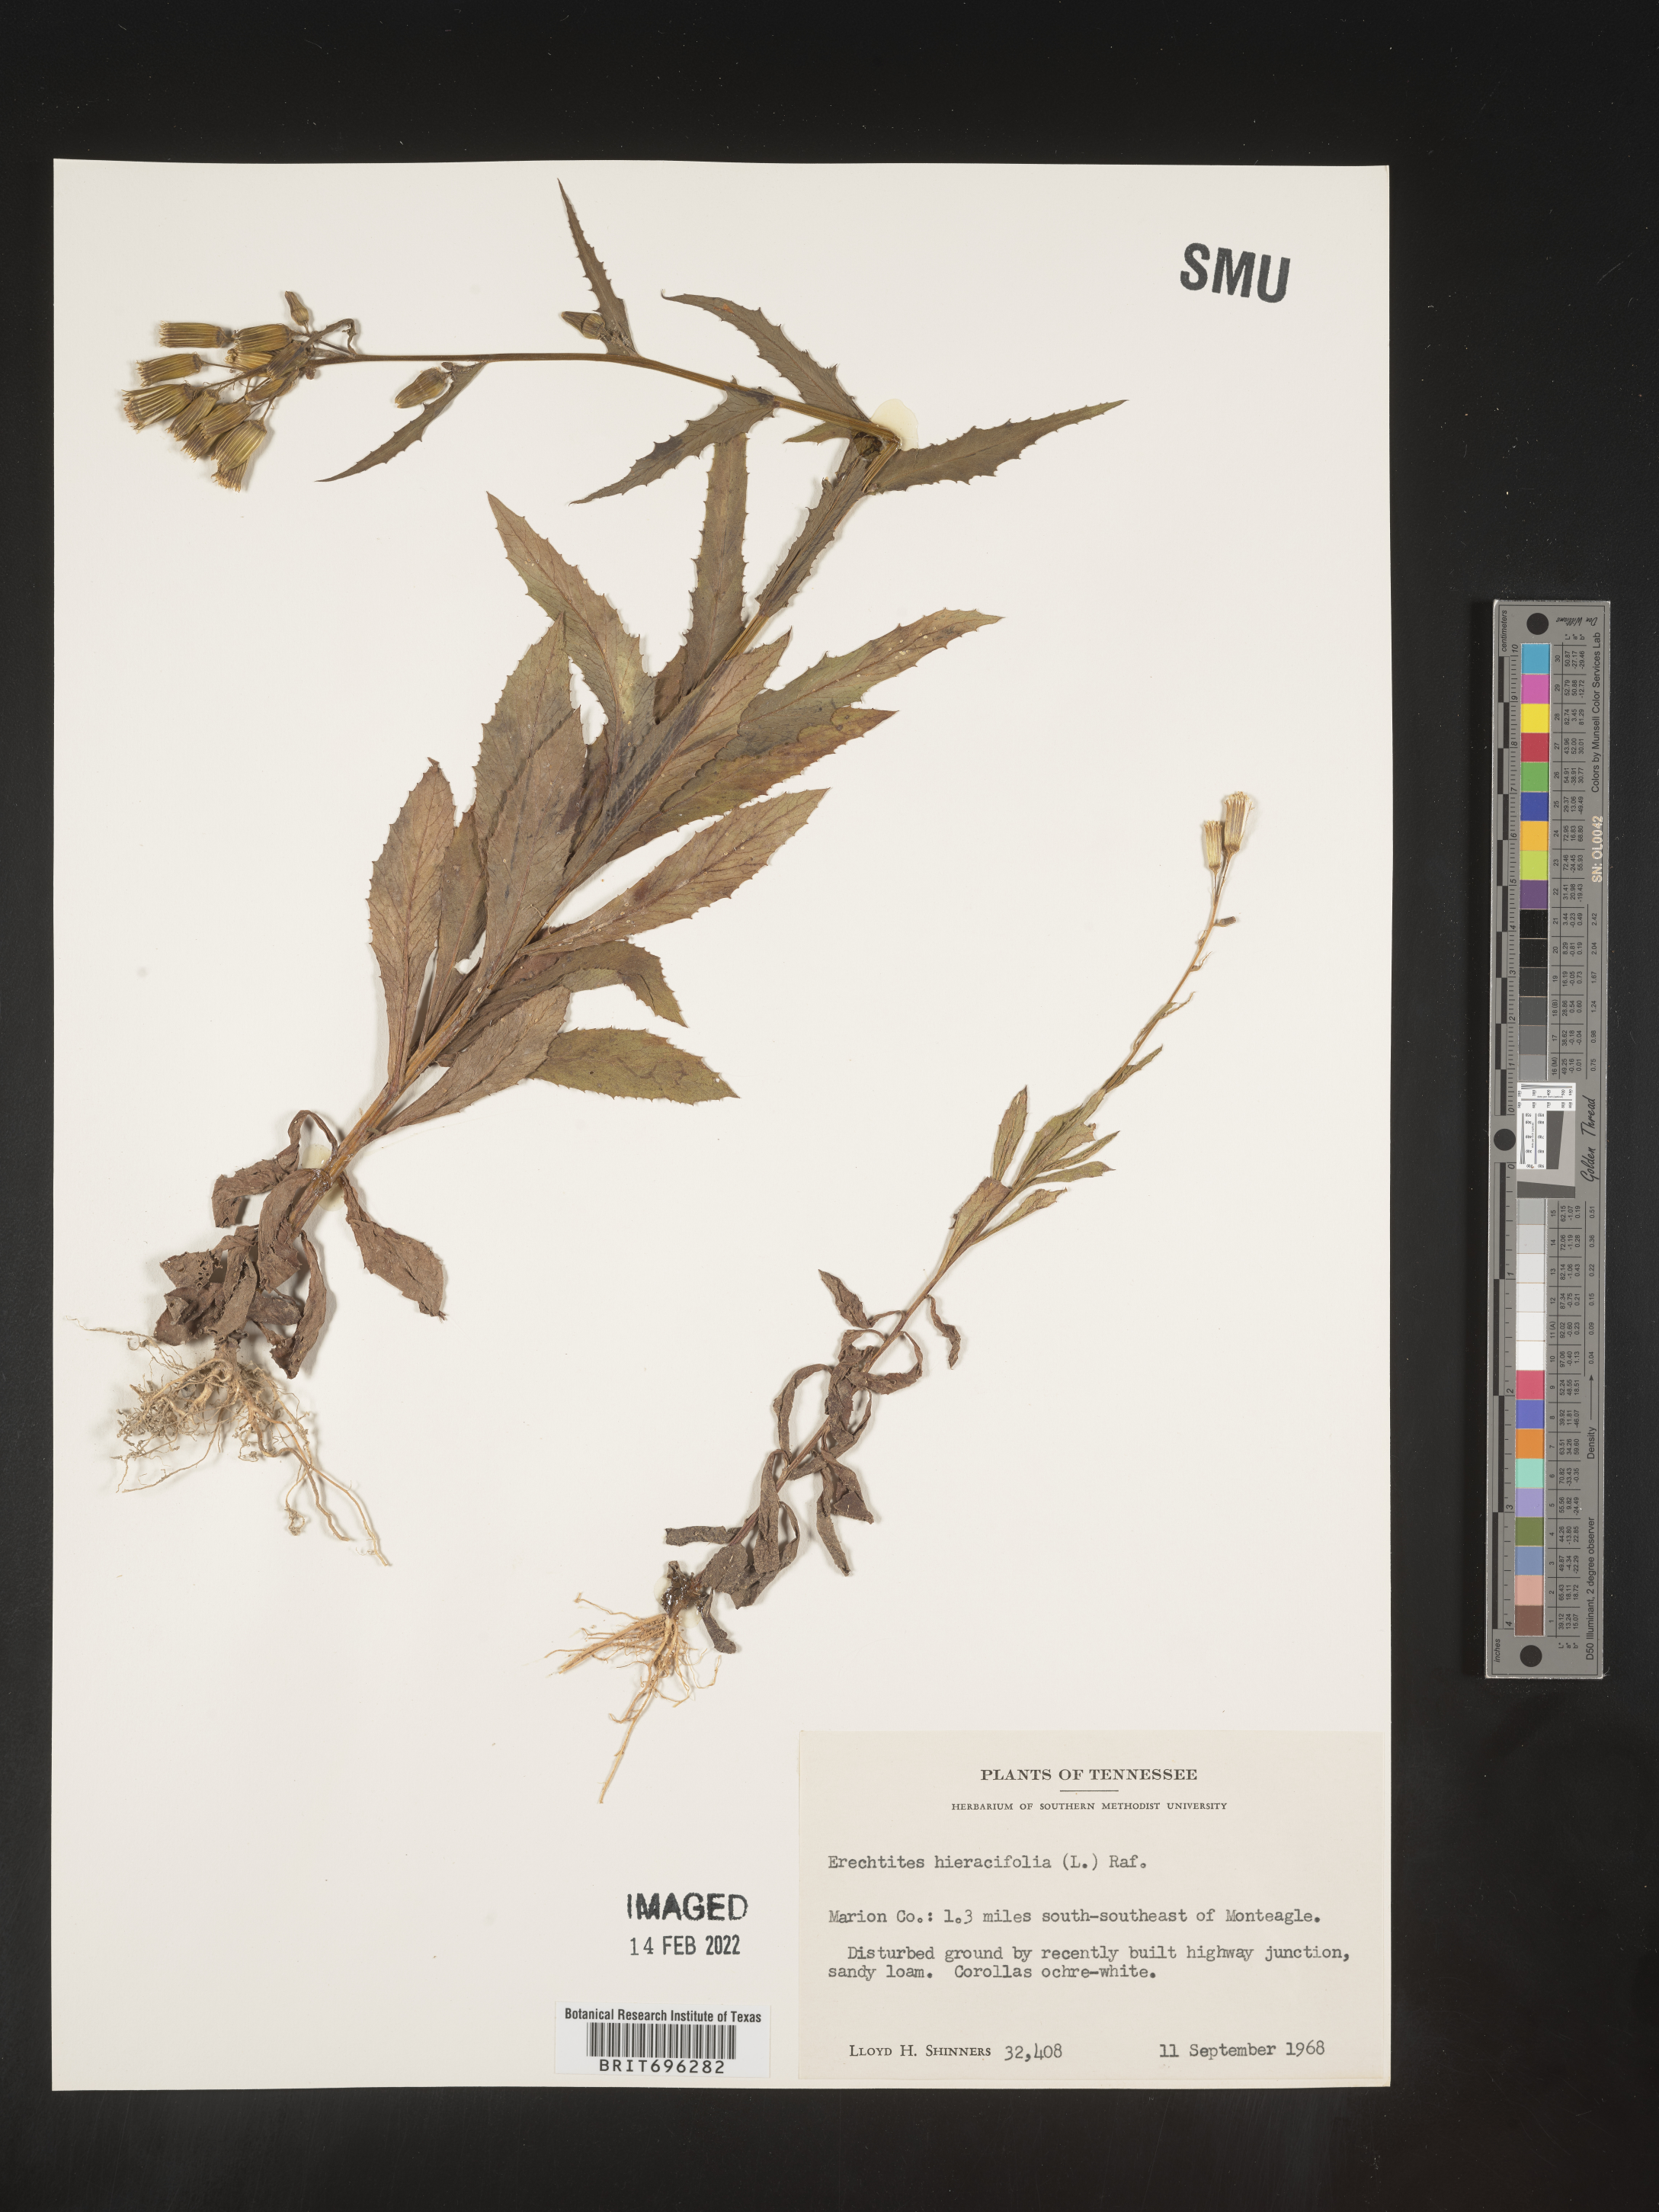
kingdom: Plantae
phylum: Tracheophyta
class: Magnoliopsida
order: Asterales
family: Asteraceae
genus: Erechtites
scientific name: Erechtites hieraciifolius
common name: American burnweed
